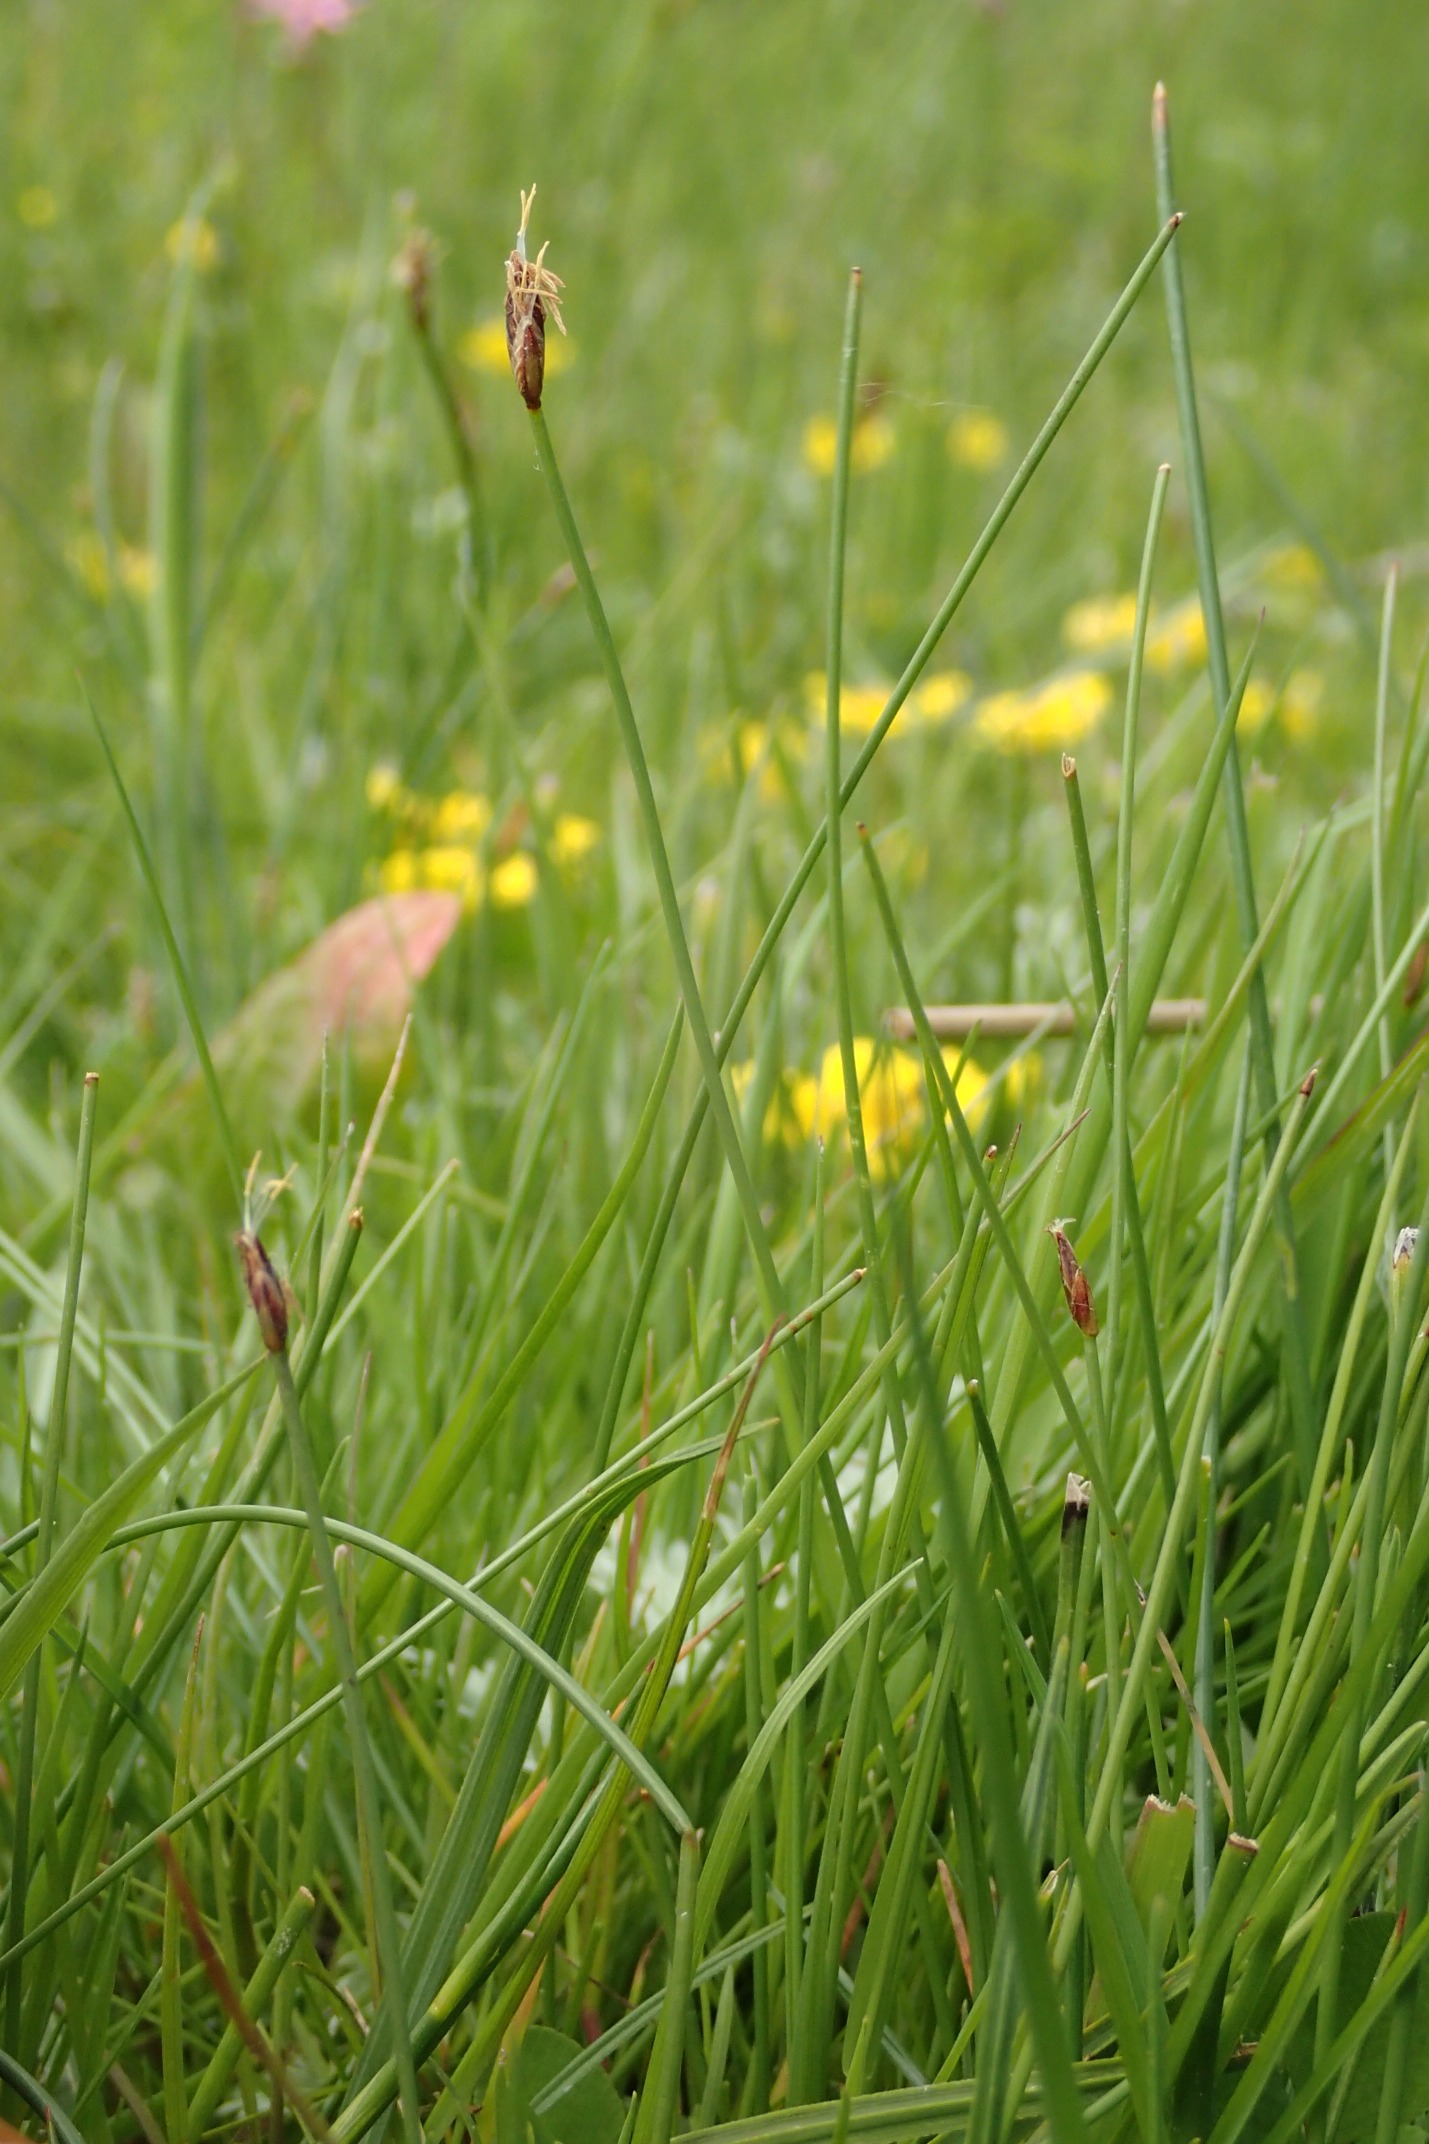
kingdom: Plantae
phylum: Tracheophyta
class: Liliopsida
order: Poales
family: Cyperaceae
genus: Eleocharis
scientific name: Eleocharis quinqueflora
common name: Fåblomstret kogleaks
